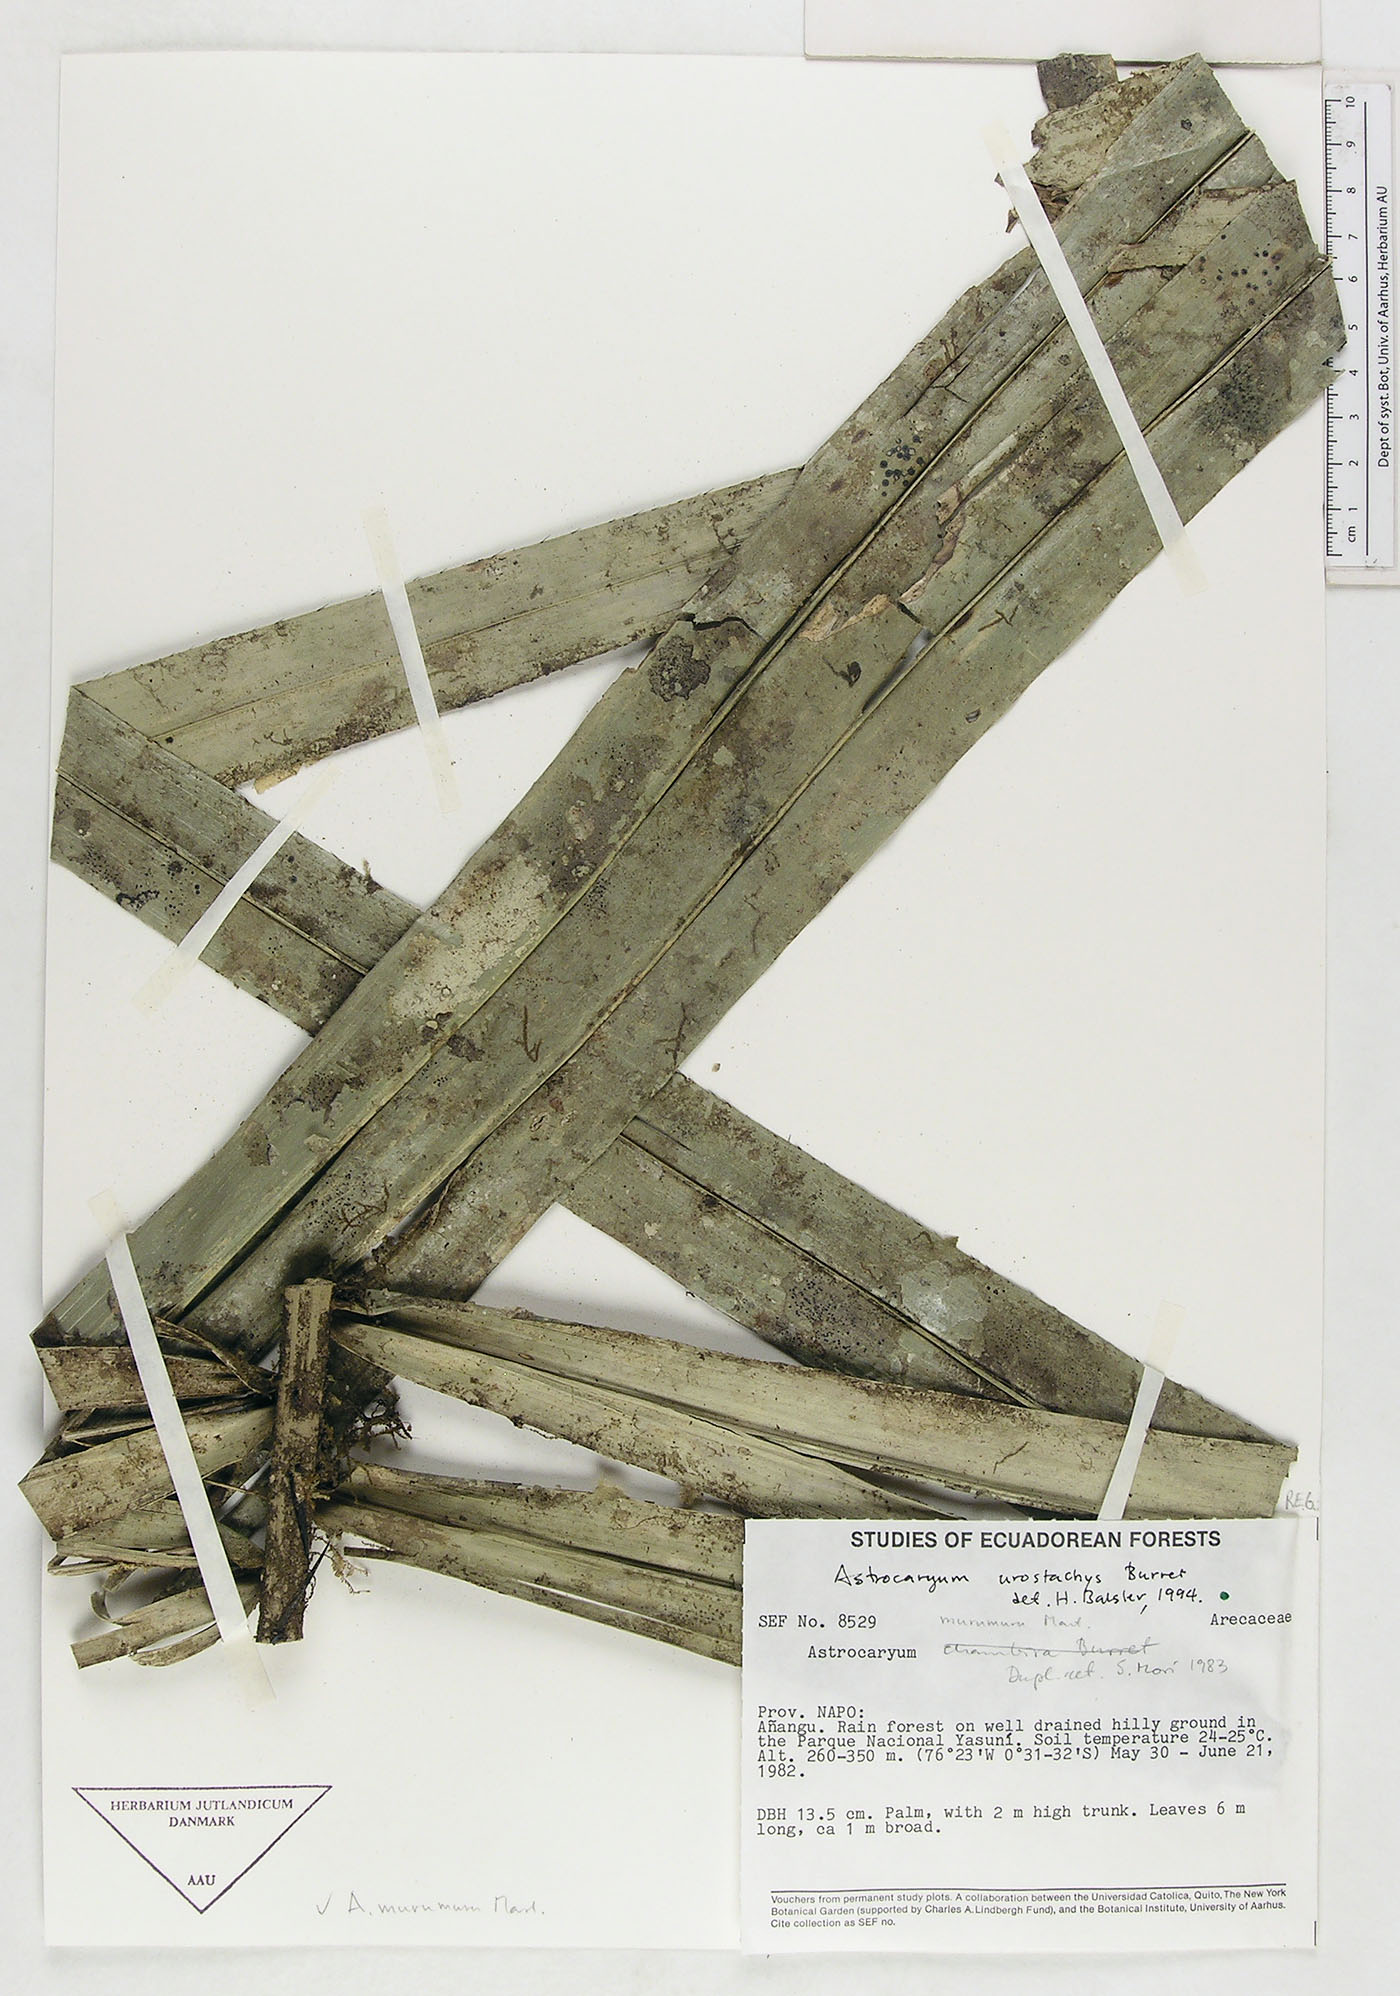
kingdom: Plantae
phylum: Tracheophyta
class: Liliopsida
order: Arecales
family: Arecaceae
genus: Astrocaryum
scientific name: Astrocaryum urostachys
